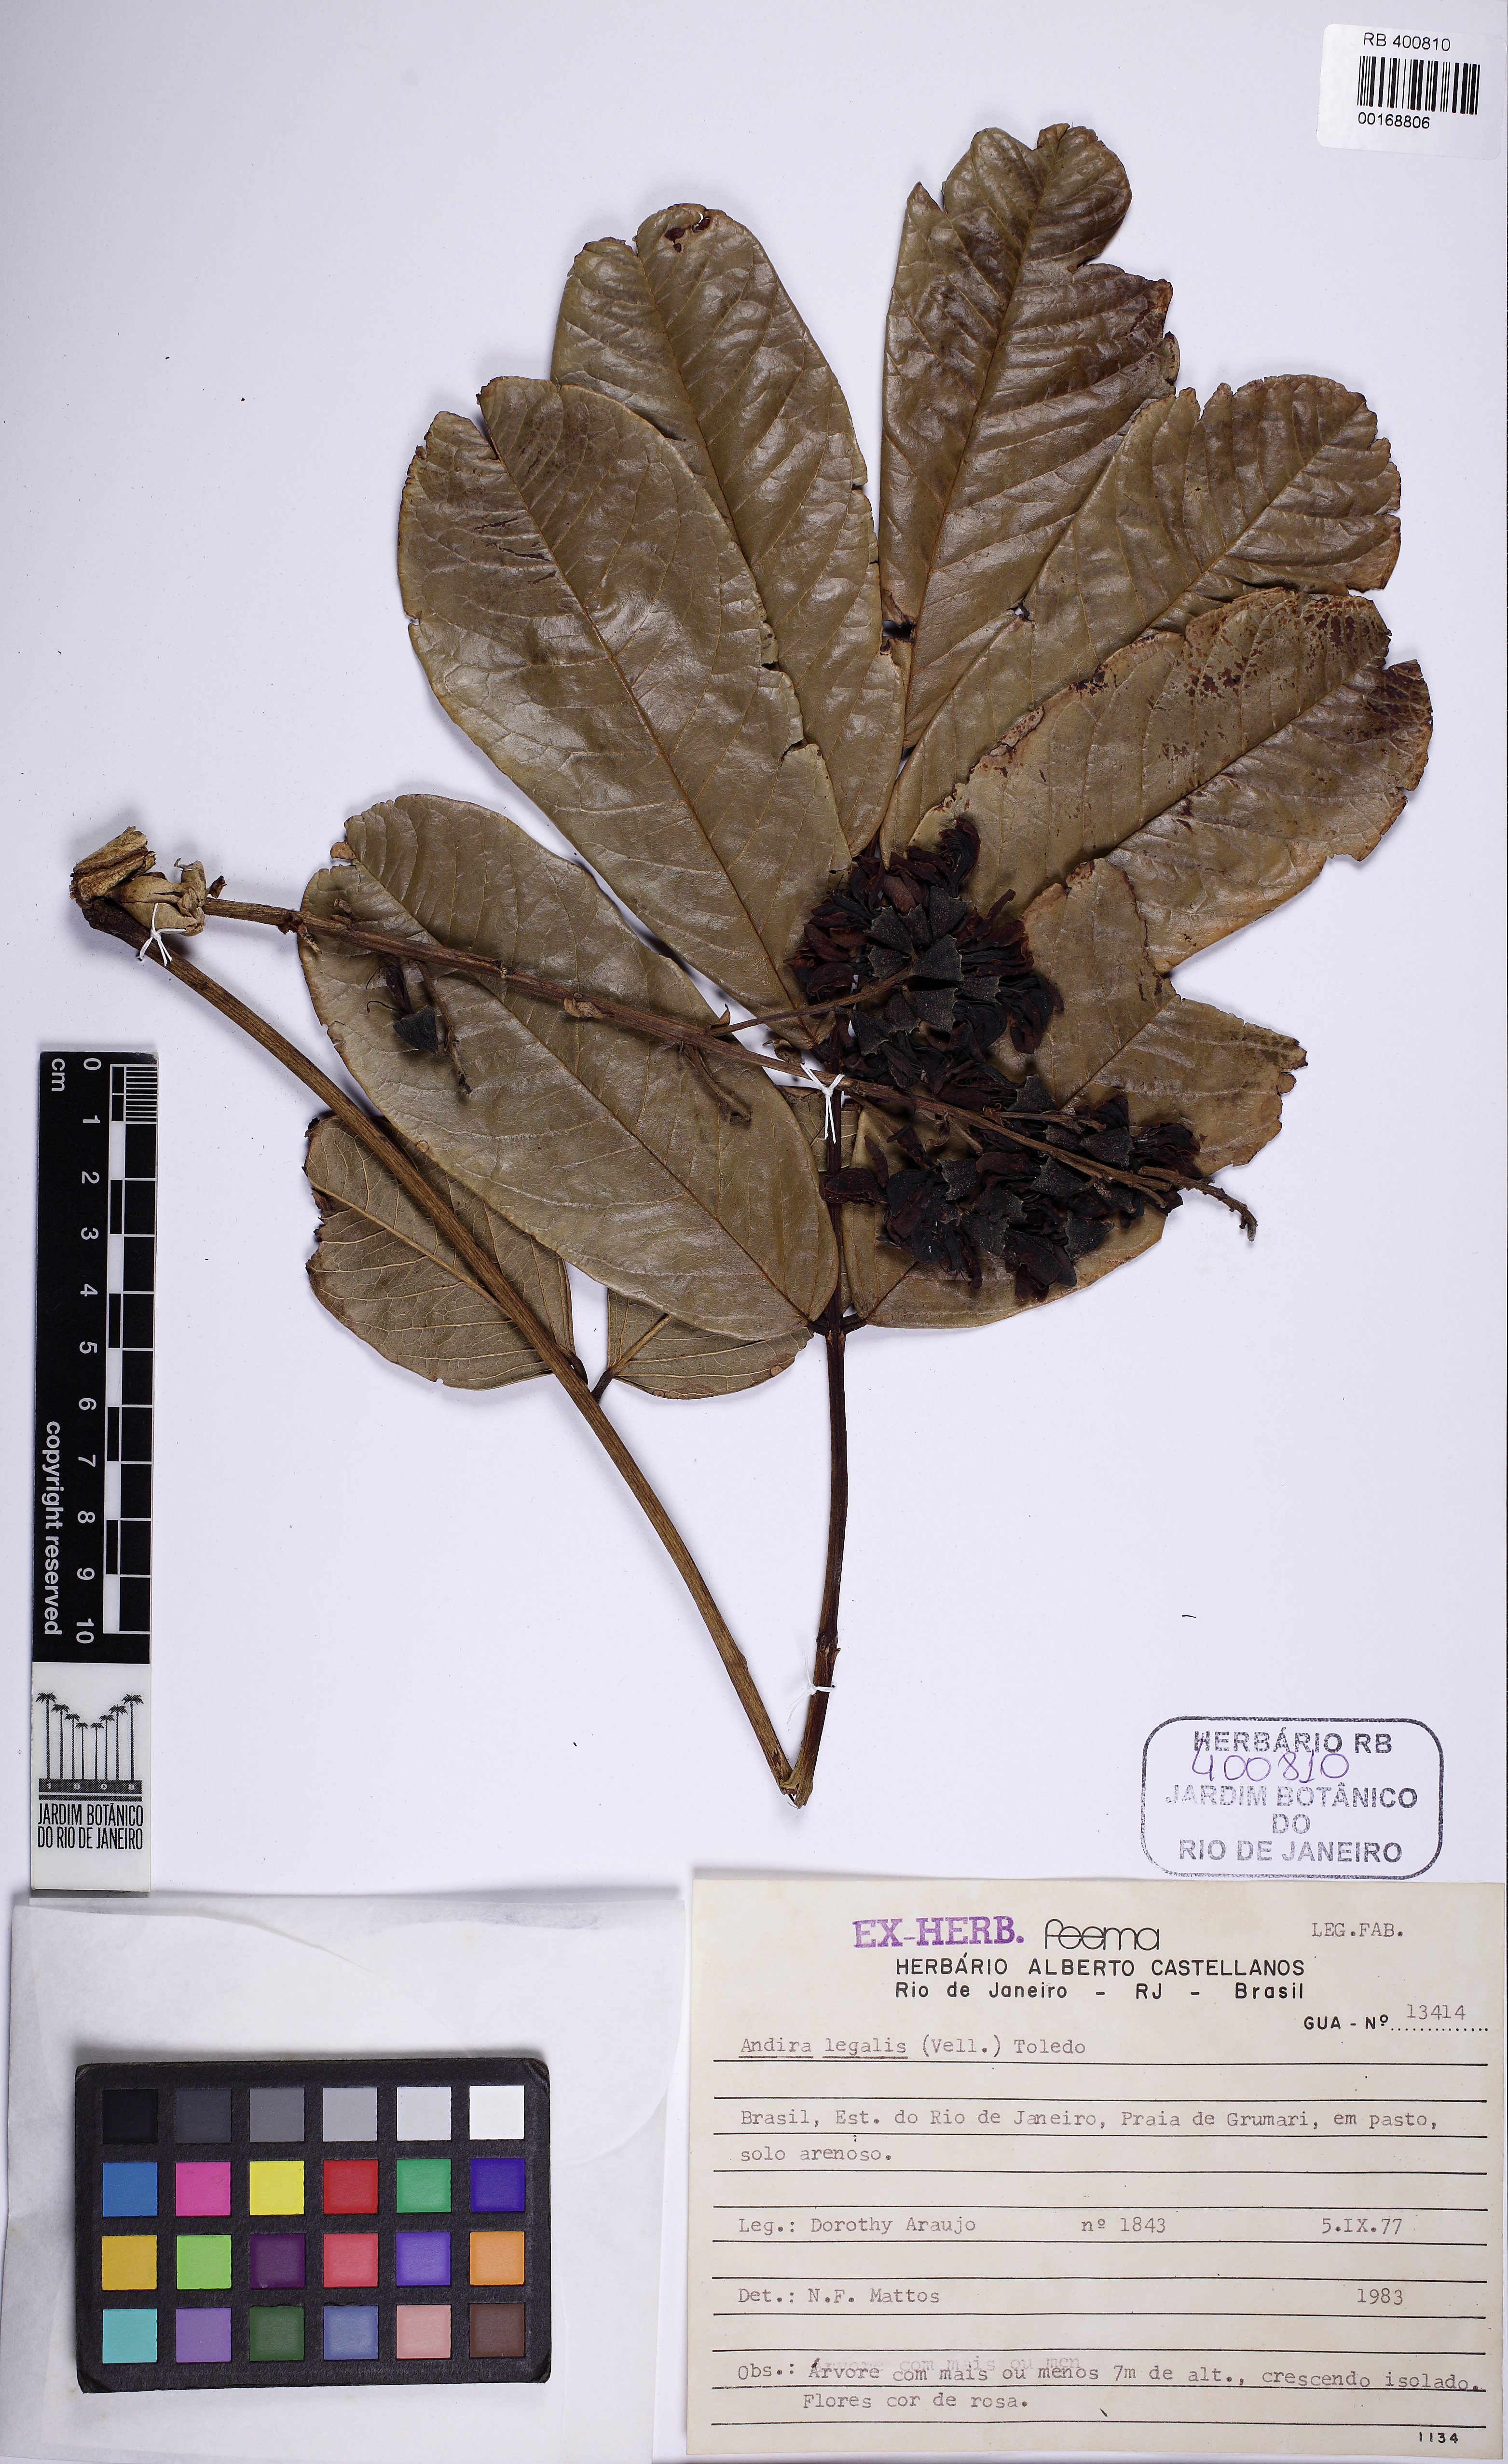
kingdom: Plantae
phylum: Tracheophyta
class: Magnoliopsida
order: Fabales
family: Fabaceae
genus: Andira
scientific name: Andira legalis
